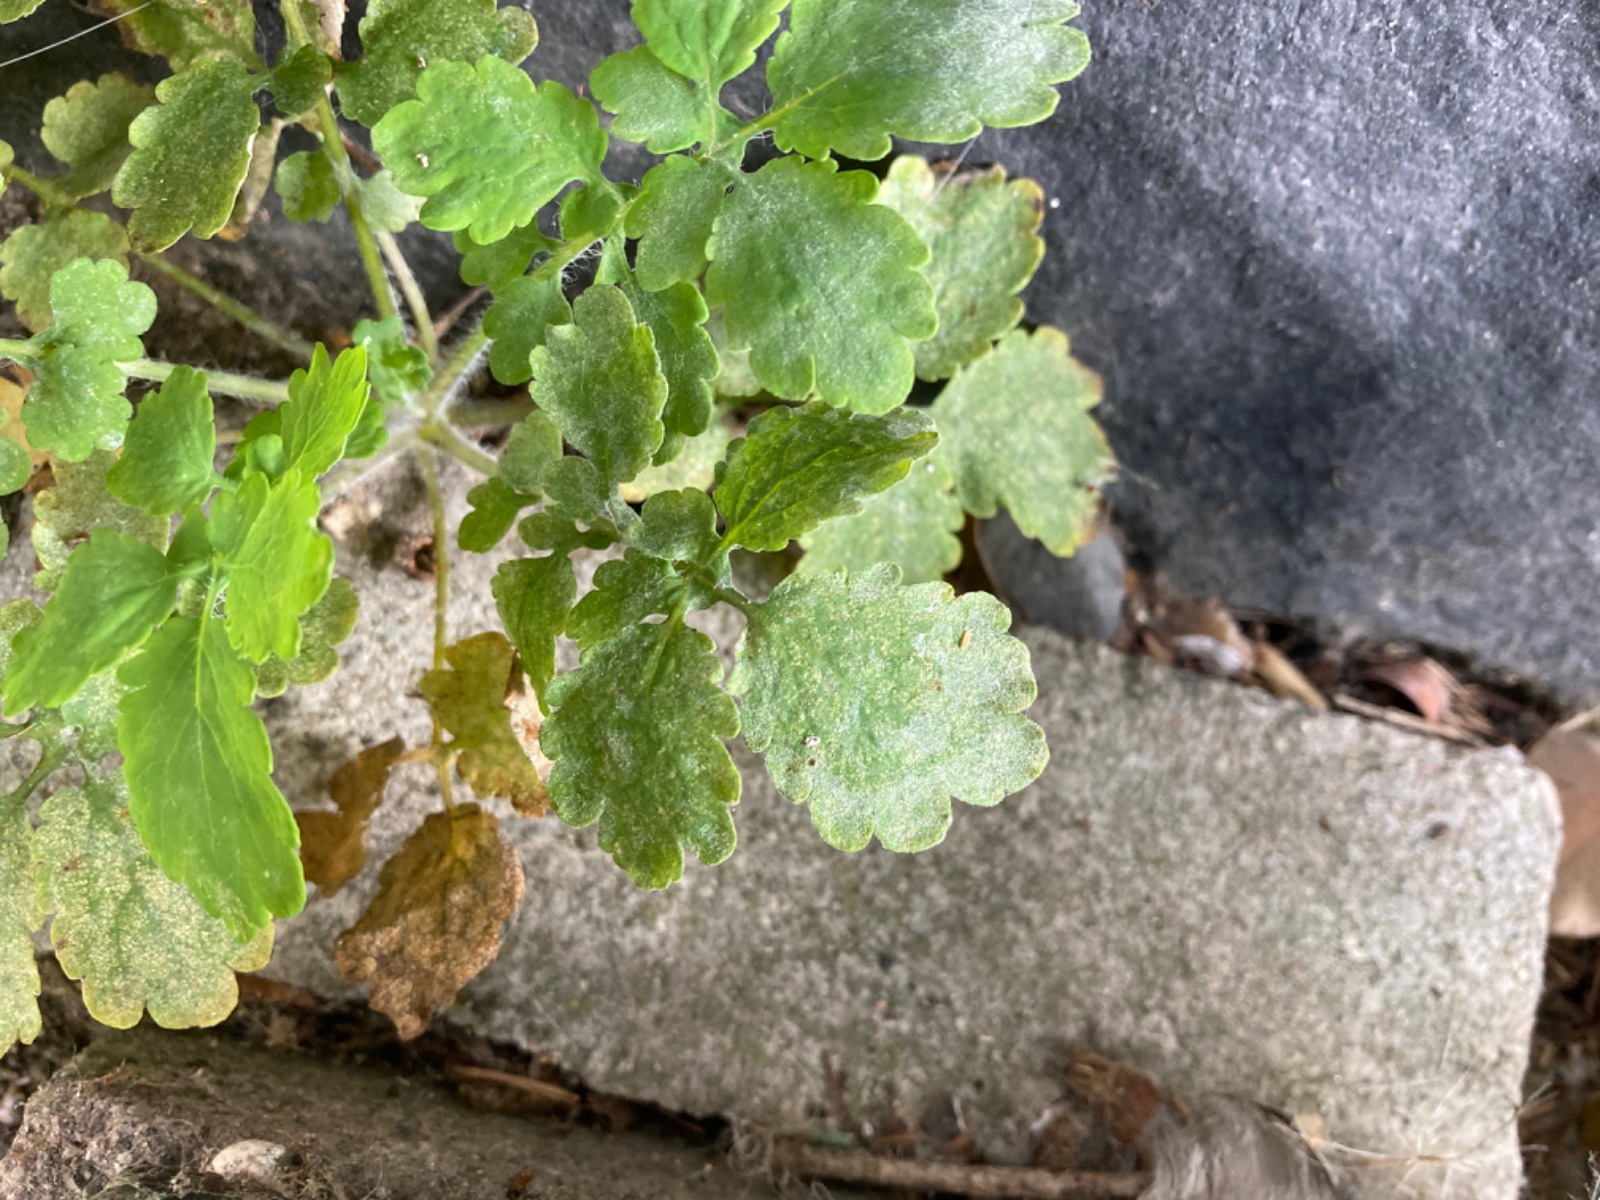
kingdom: Fungi
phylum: Ascomycota
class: Leotiomycetes
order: Helotiales
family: Erysiphaceae
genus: Erysiphe
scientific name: Erysiphe macleayae
